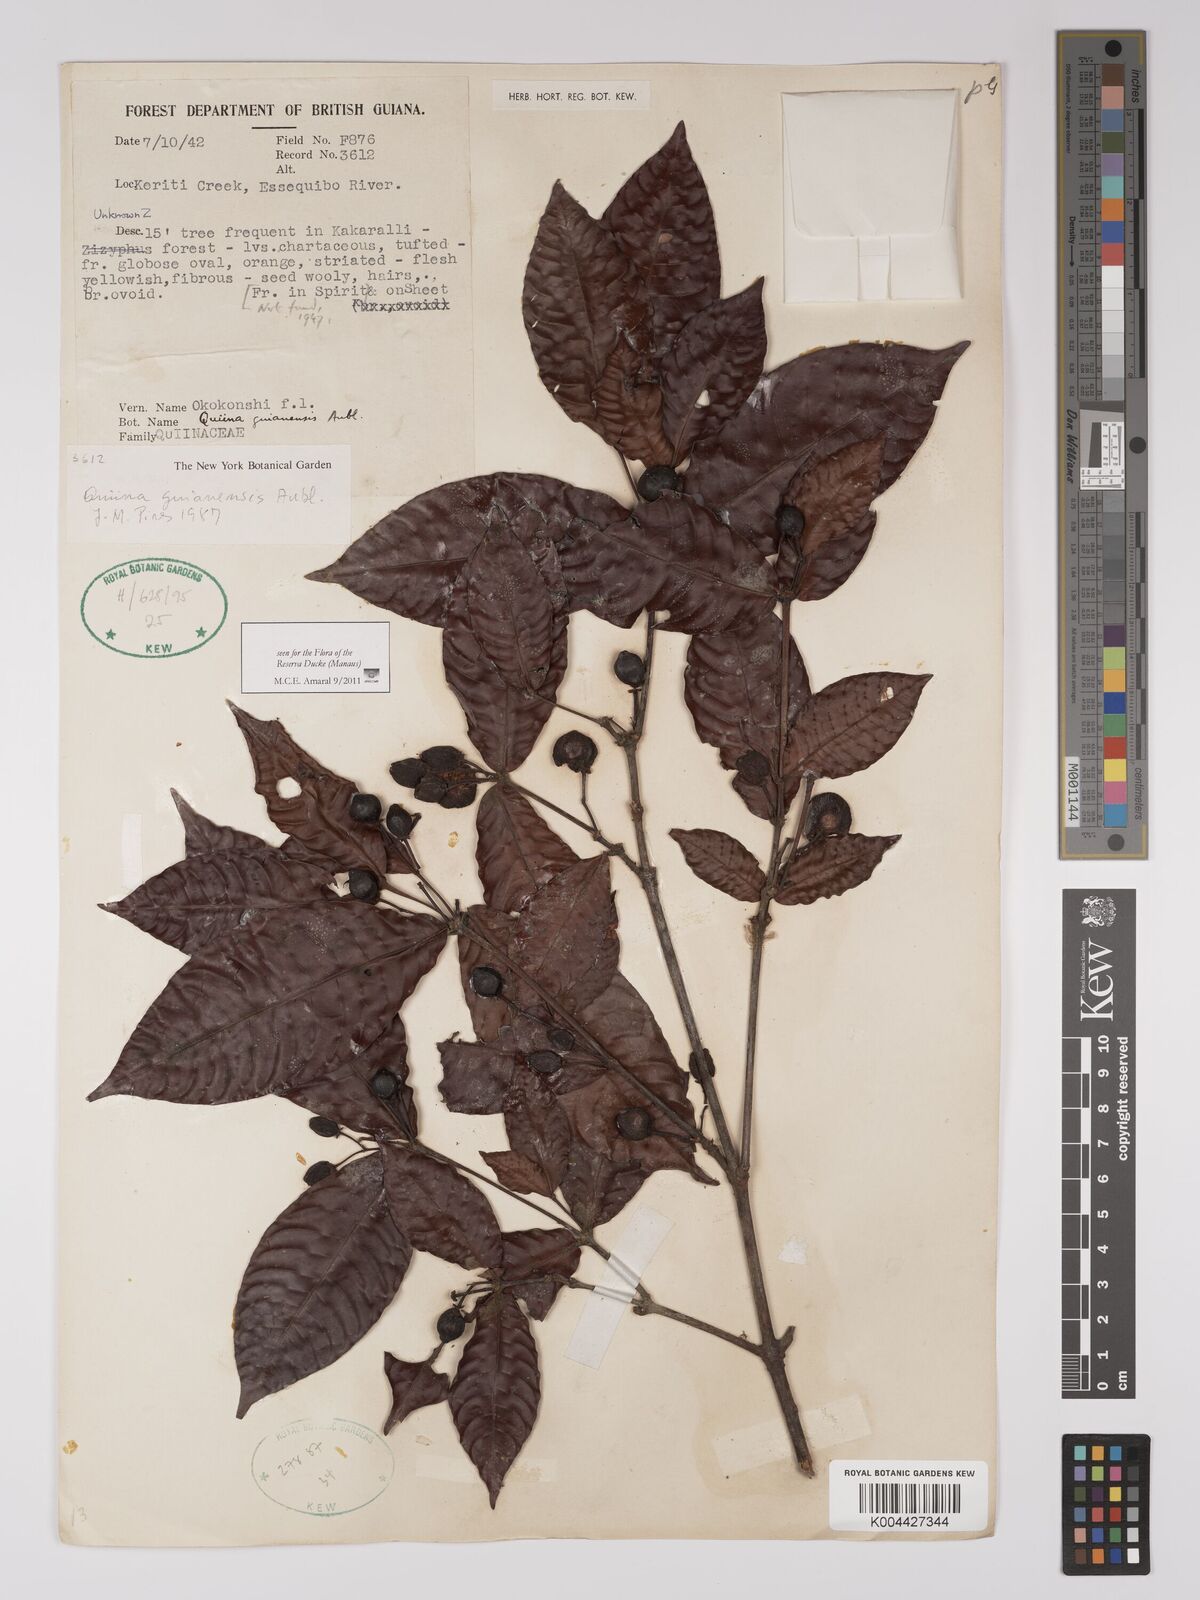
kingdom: Plantae
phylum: Tracheophyta
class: Magnoliopsida
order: Malpighiales
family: Quiinaceae
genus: Quiina
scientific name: Quiina guianensis
